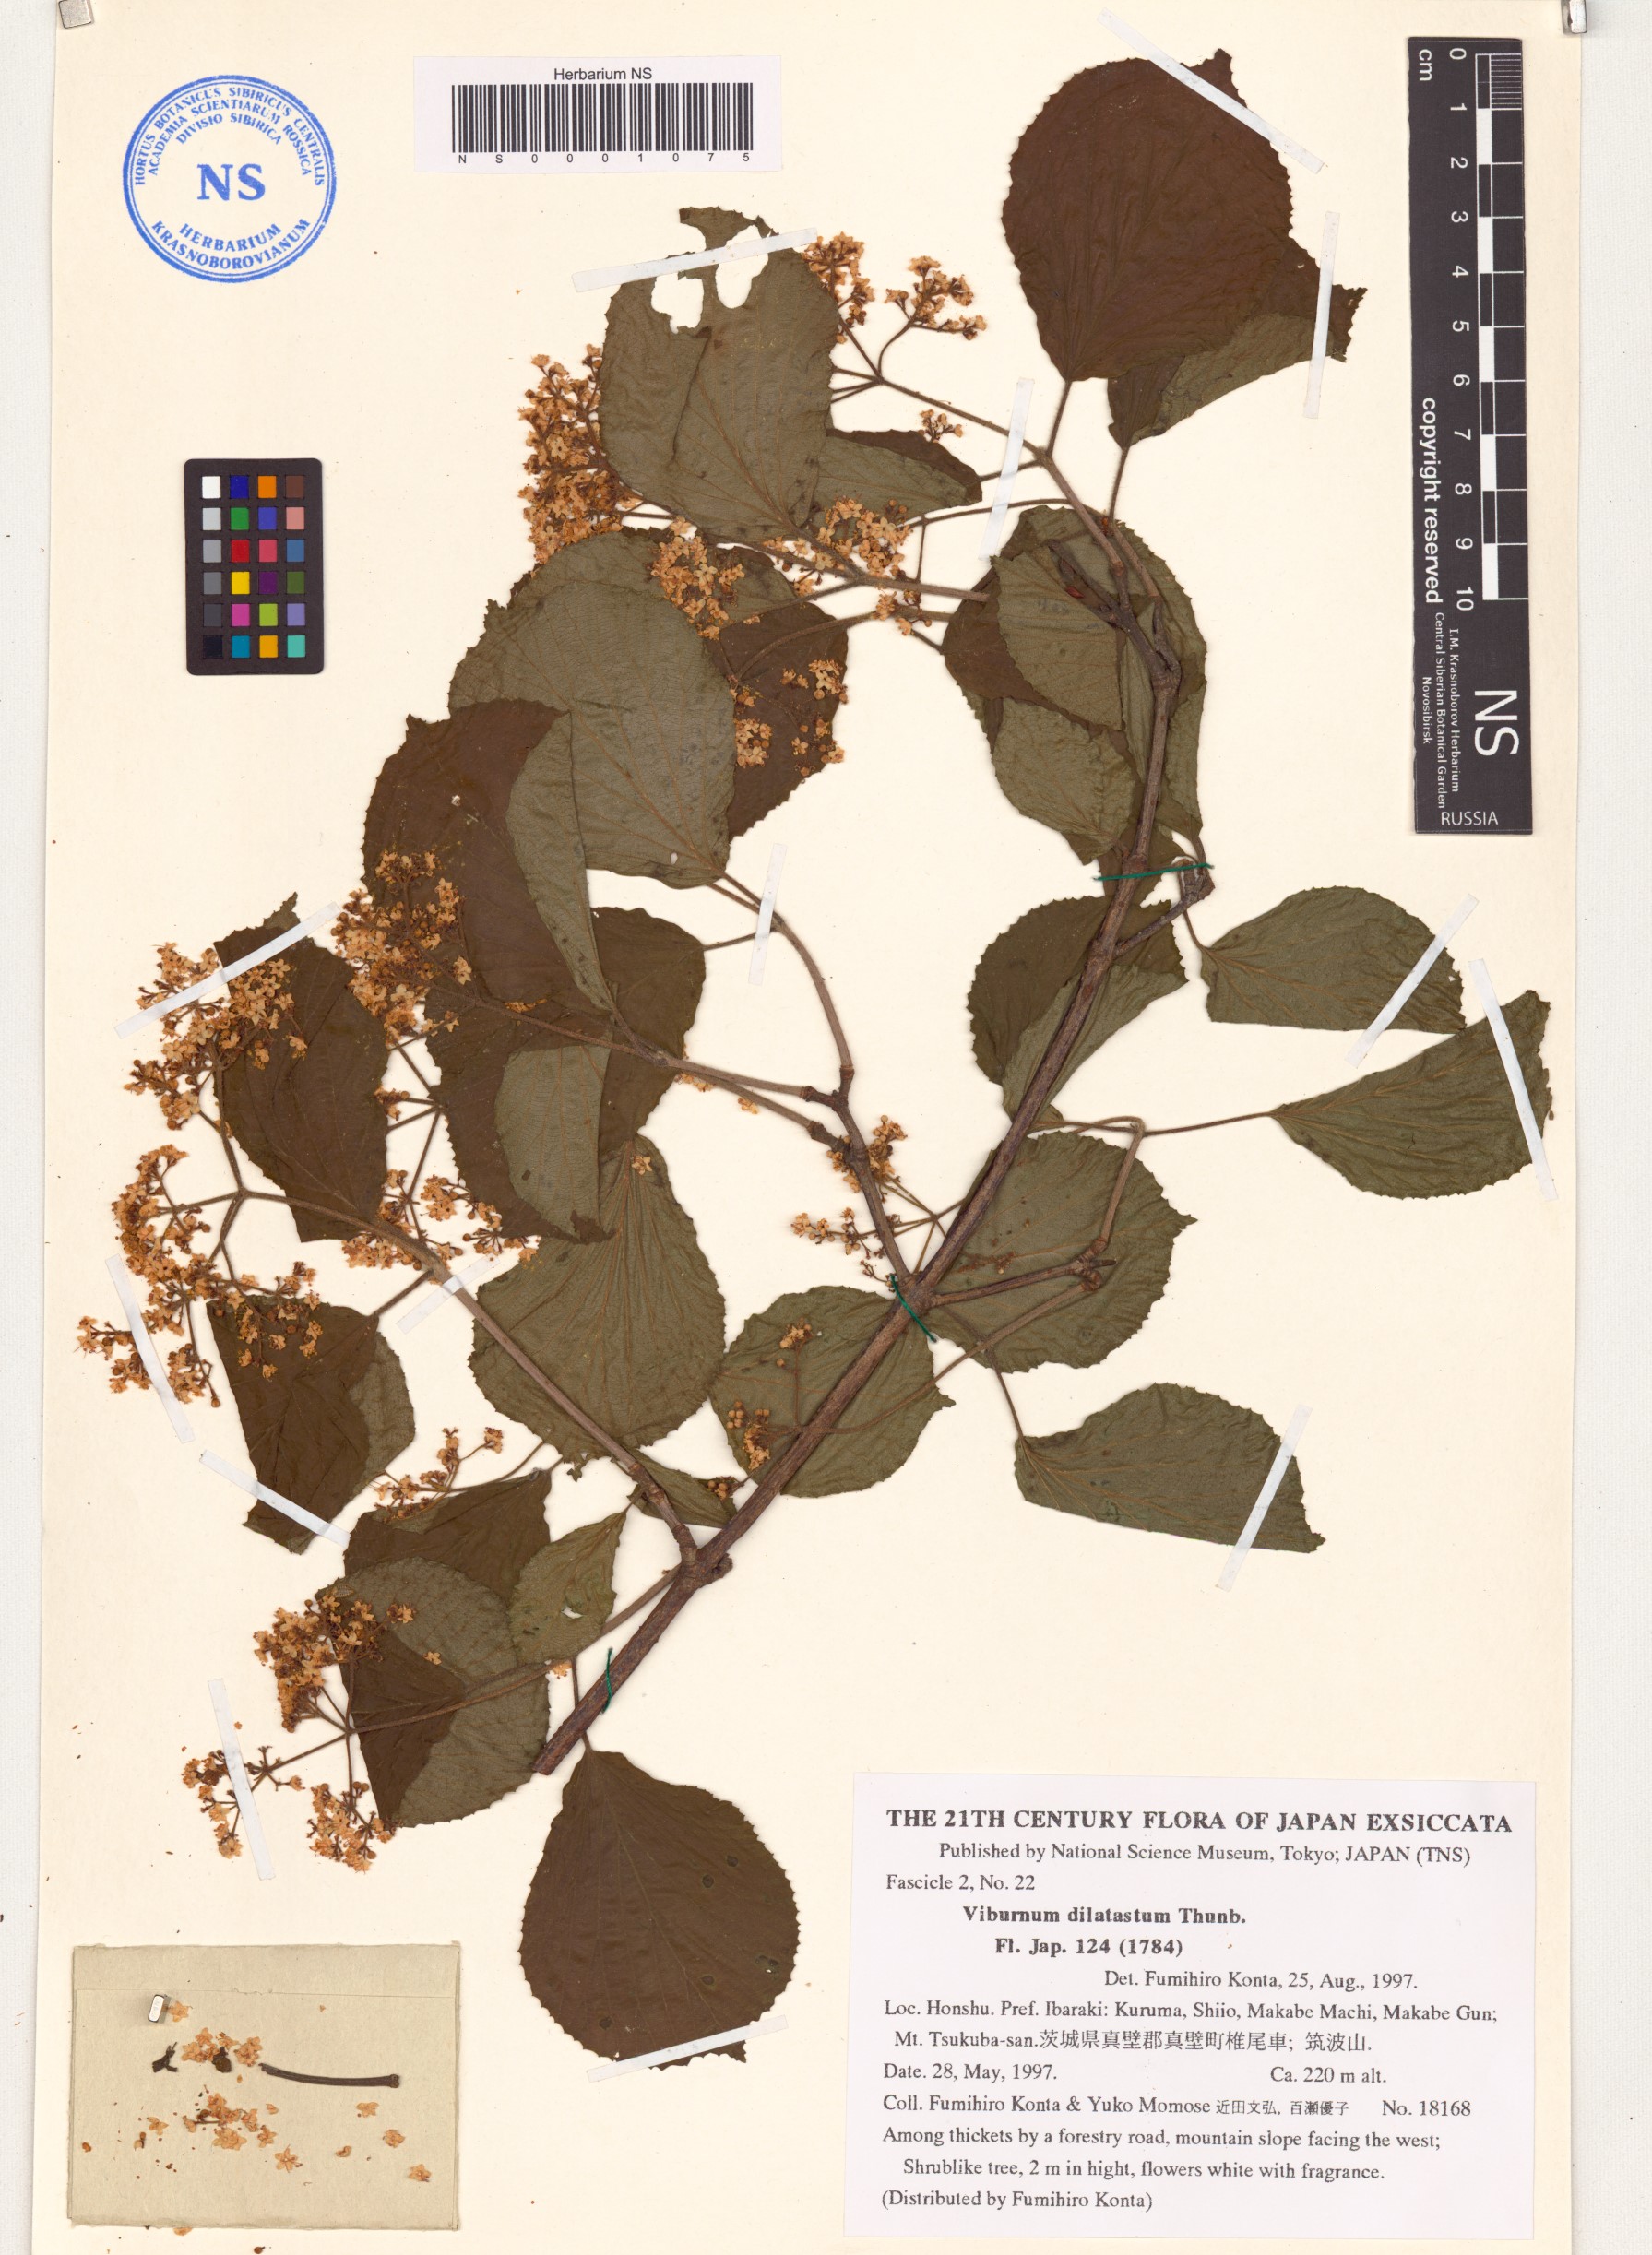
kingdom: Plantae
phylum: Tracheophyta
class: Magnoliopsida
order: Dipsacales
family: Viburnaceae
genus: Viburnum
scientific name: Viburnum dilatatum
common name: Linden arrowwood
